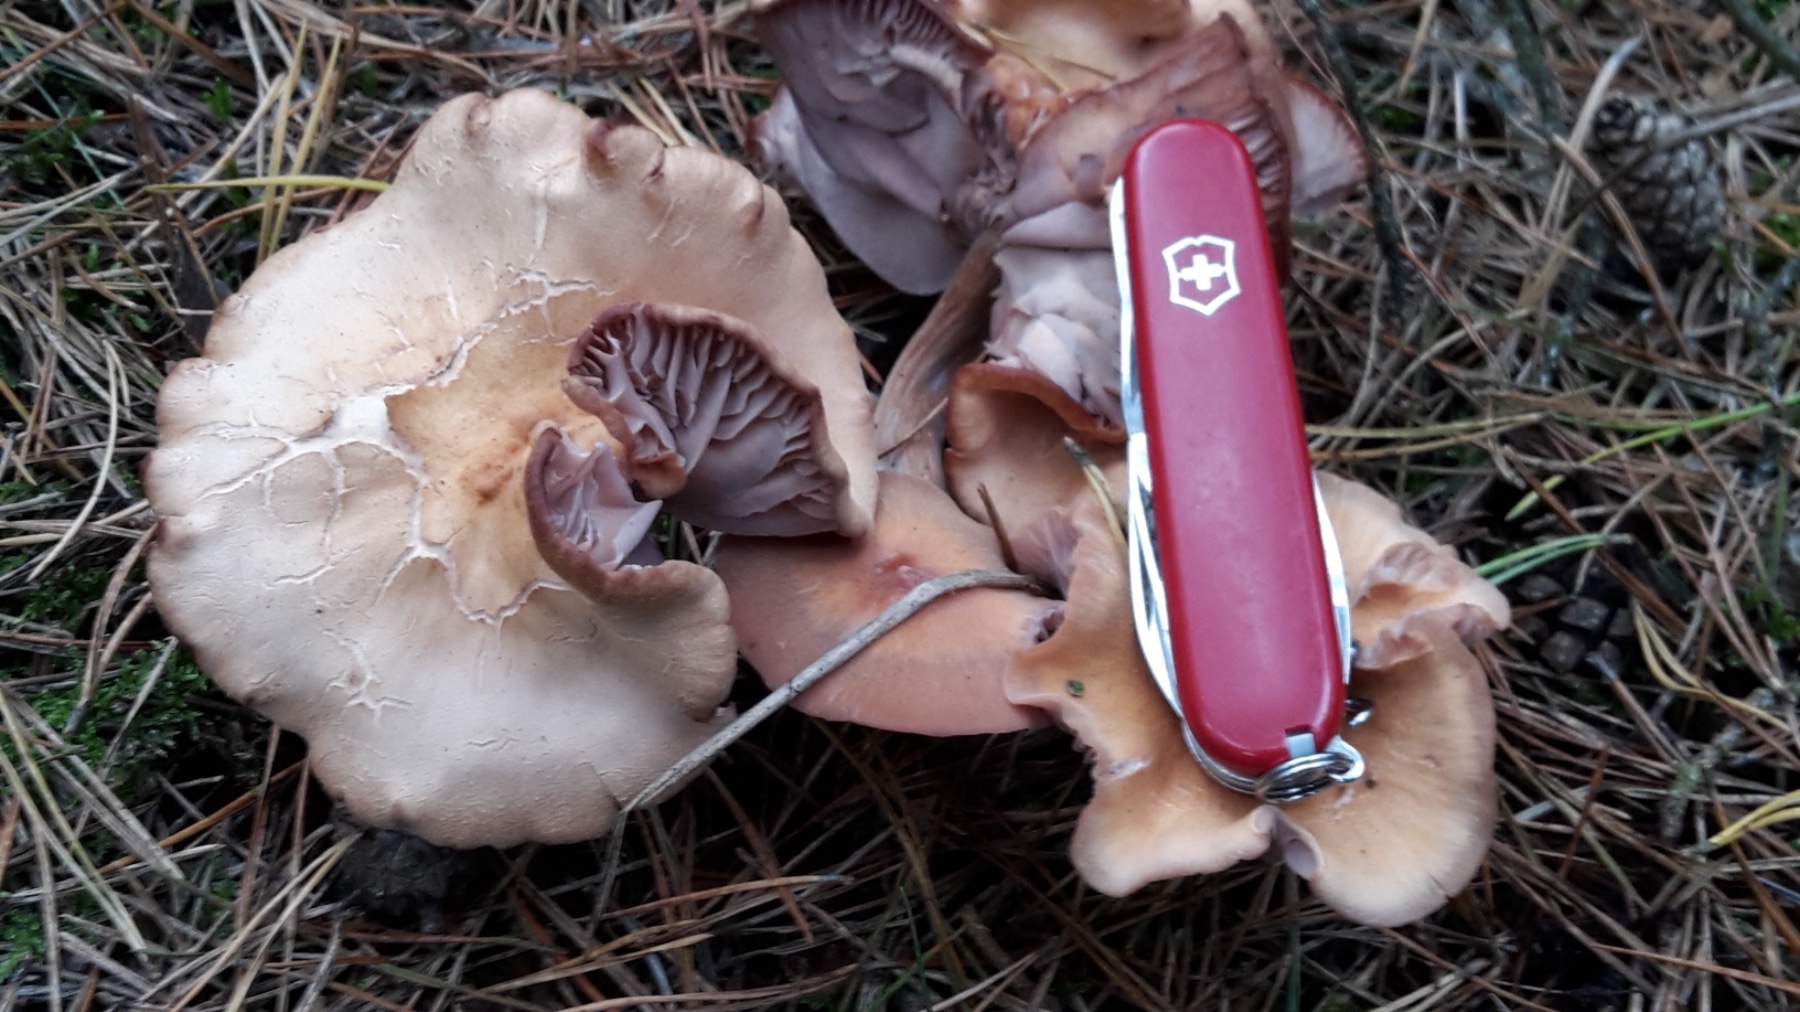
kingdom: Fungi
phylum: Basidiomycota
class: Agaricomycetes
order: Agaricales
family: Hydnangiaceae
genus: Laccaria
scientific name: Laccaria bicolor
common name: tvefarvet ametysthat
